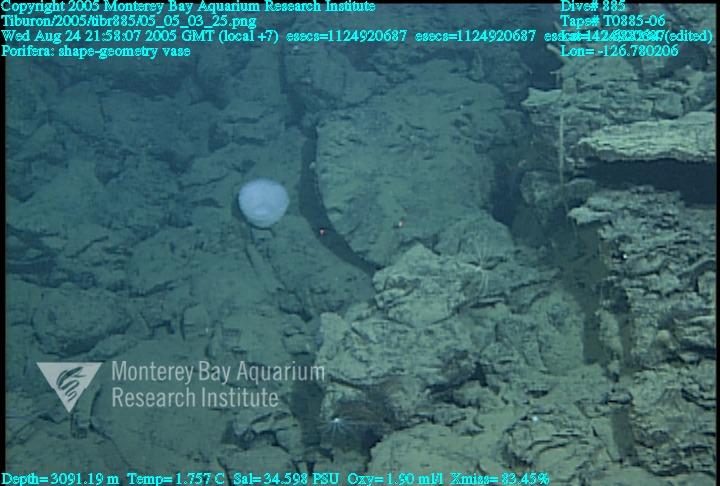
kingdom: Animalia
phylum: Porifera
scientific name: Porifera
